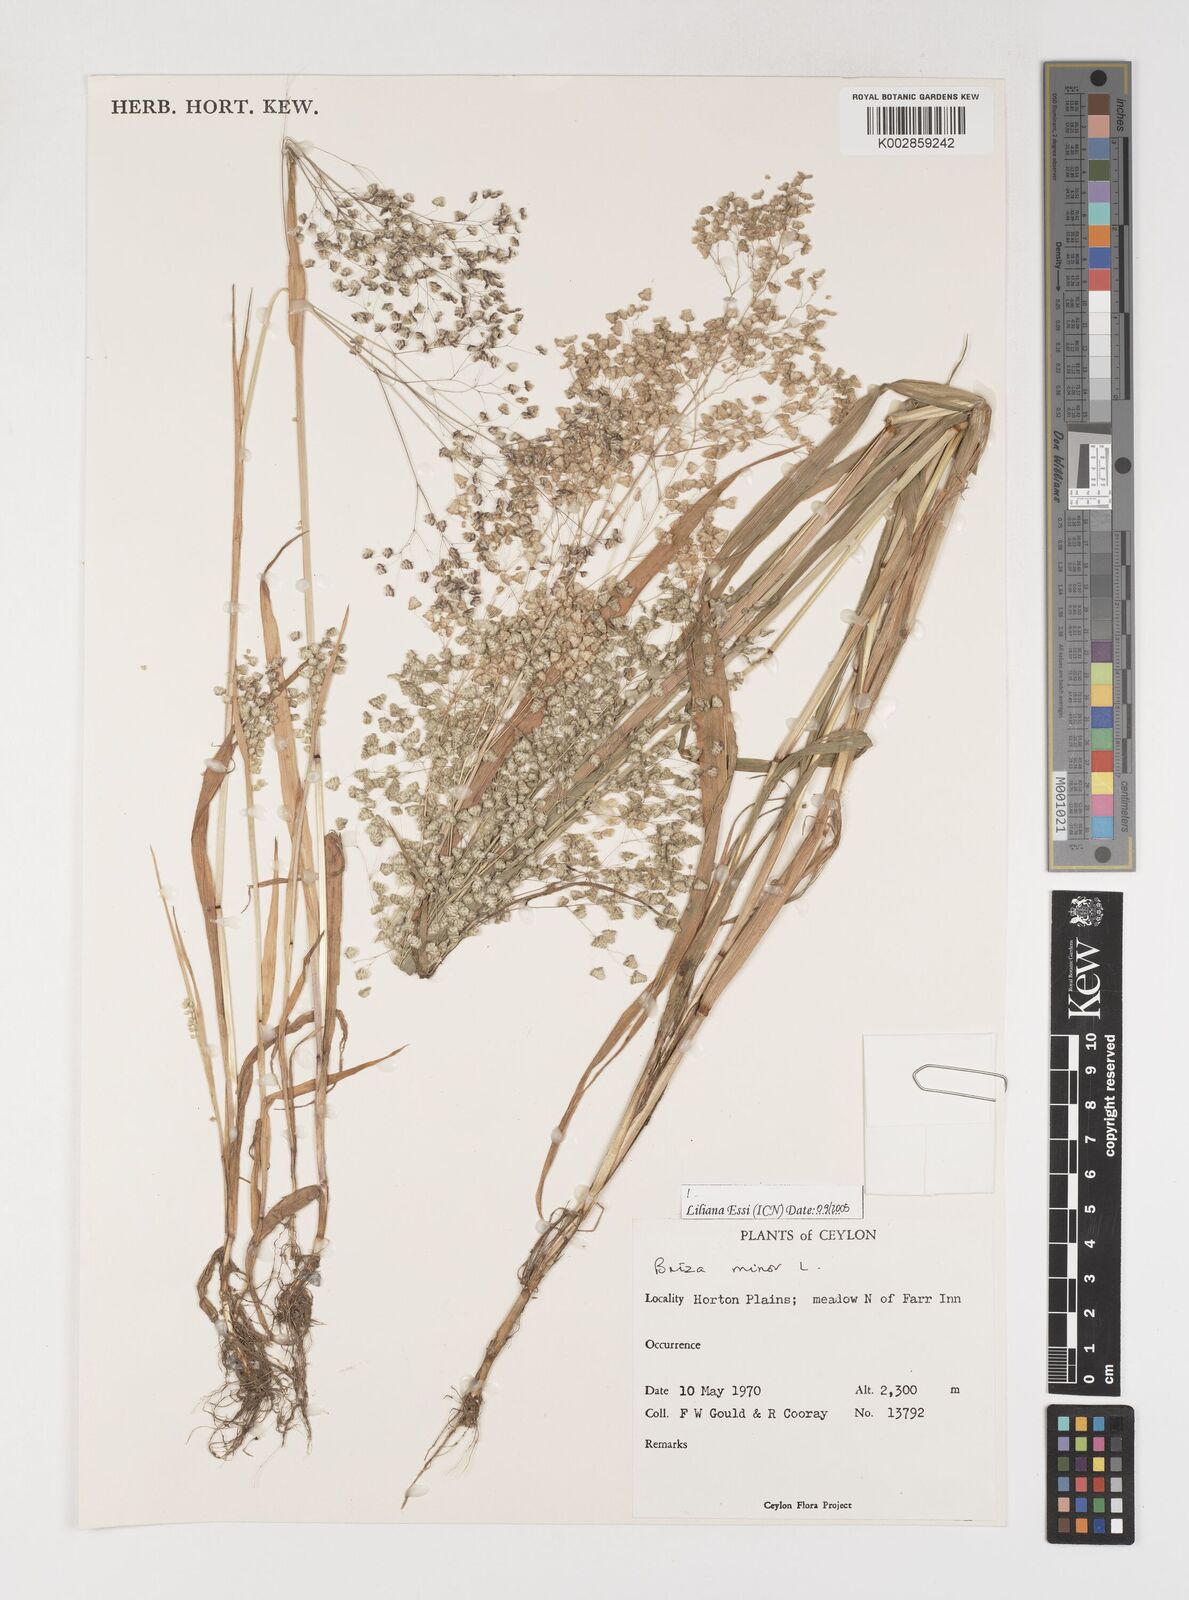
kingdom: Plantae
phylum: Tracheophyta
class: Liliopsida
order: Poales
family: Poaceae
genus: Briza
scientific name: Briza minor
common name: Lesser quaking-grass
